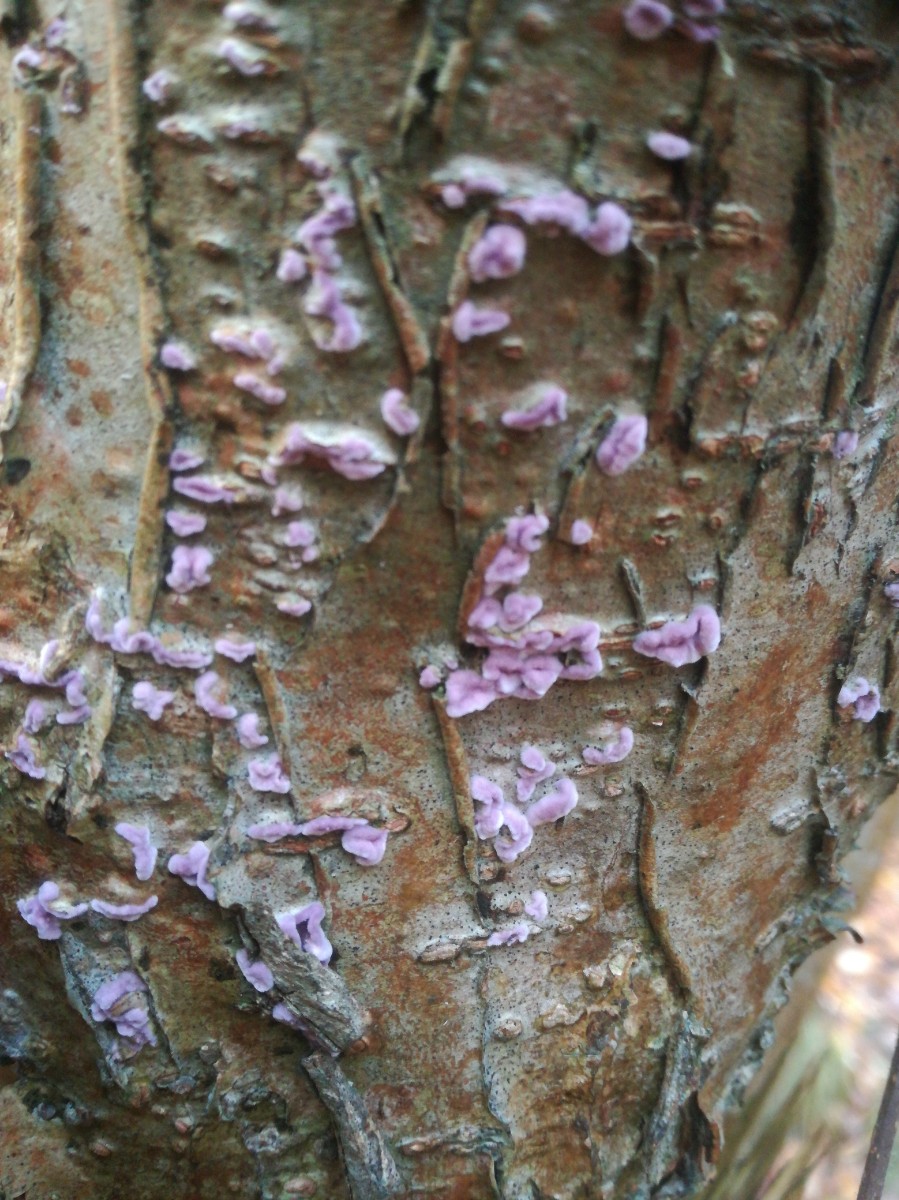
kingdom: Fungi
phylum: Basidiomycota
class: Agaricomycetes
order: Agaricales
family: Cyphellaceae
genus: Chondrostereum
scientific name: Chondrostereum purpureum
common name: purpurlædersvamp
